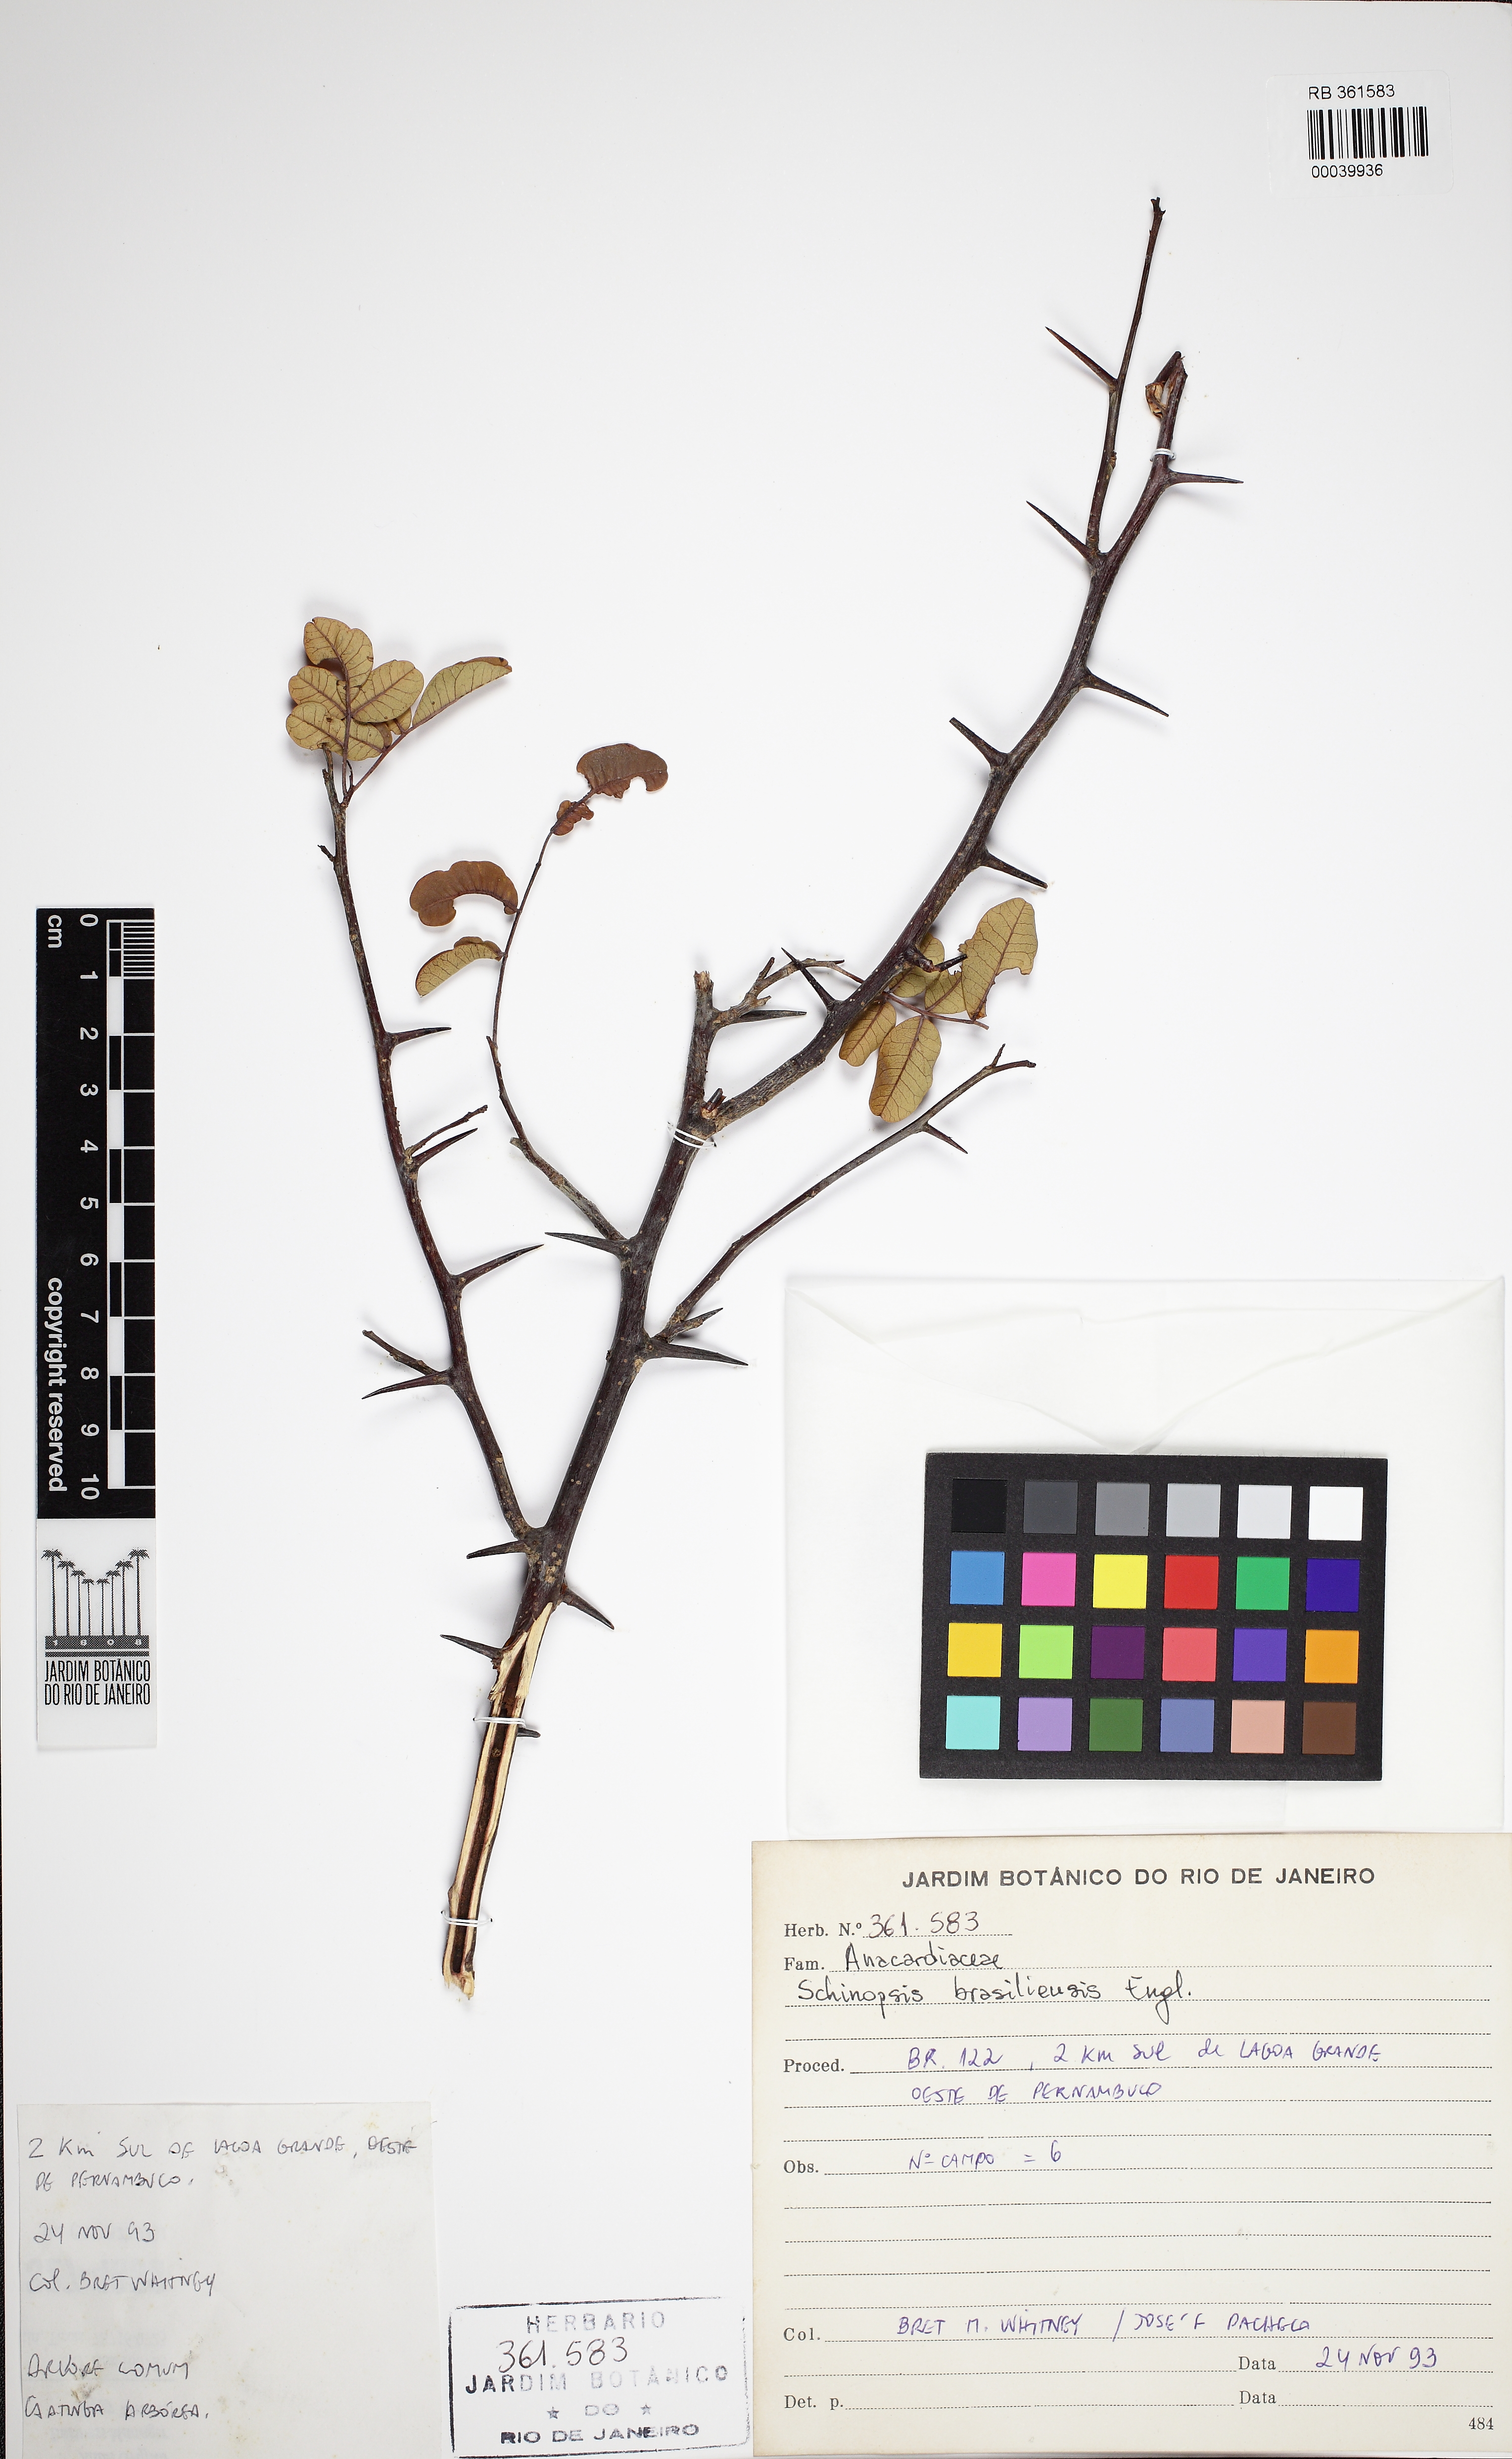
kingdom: Plantae
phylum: Tracheophyta
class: Magnoliopsida
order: Sapindales
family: Anacardiaceae
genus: Schinopsis
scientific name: Schinopsis brasiliensis
